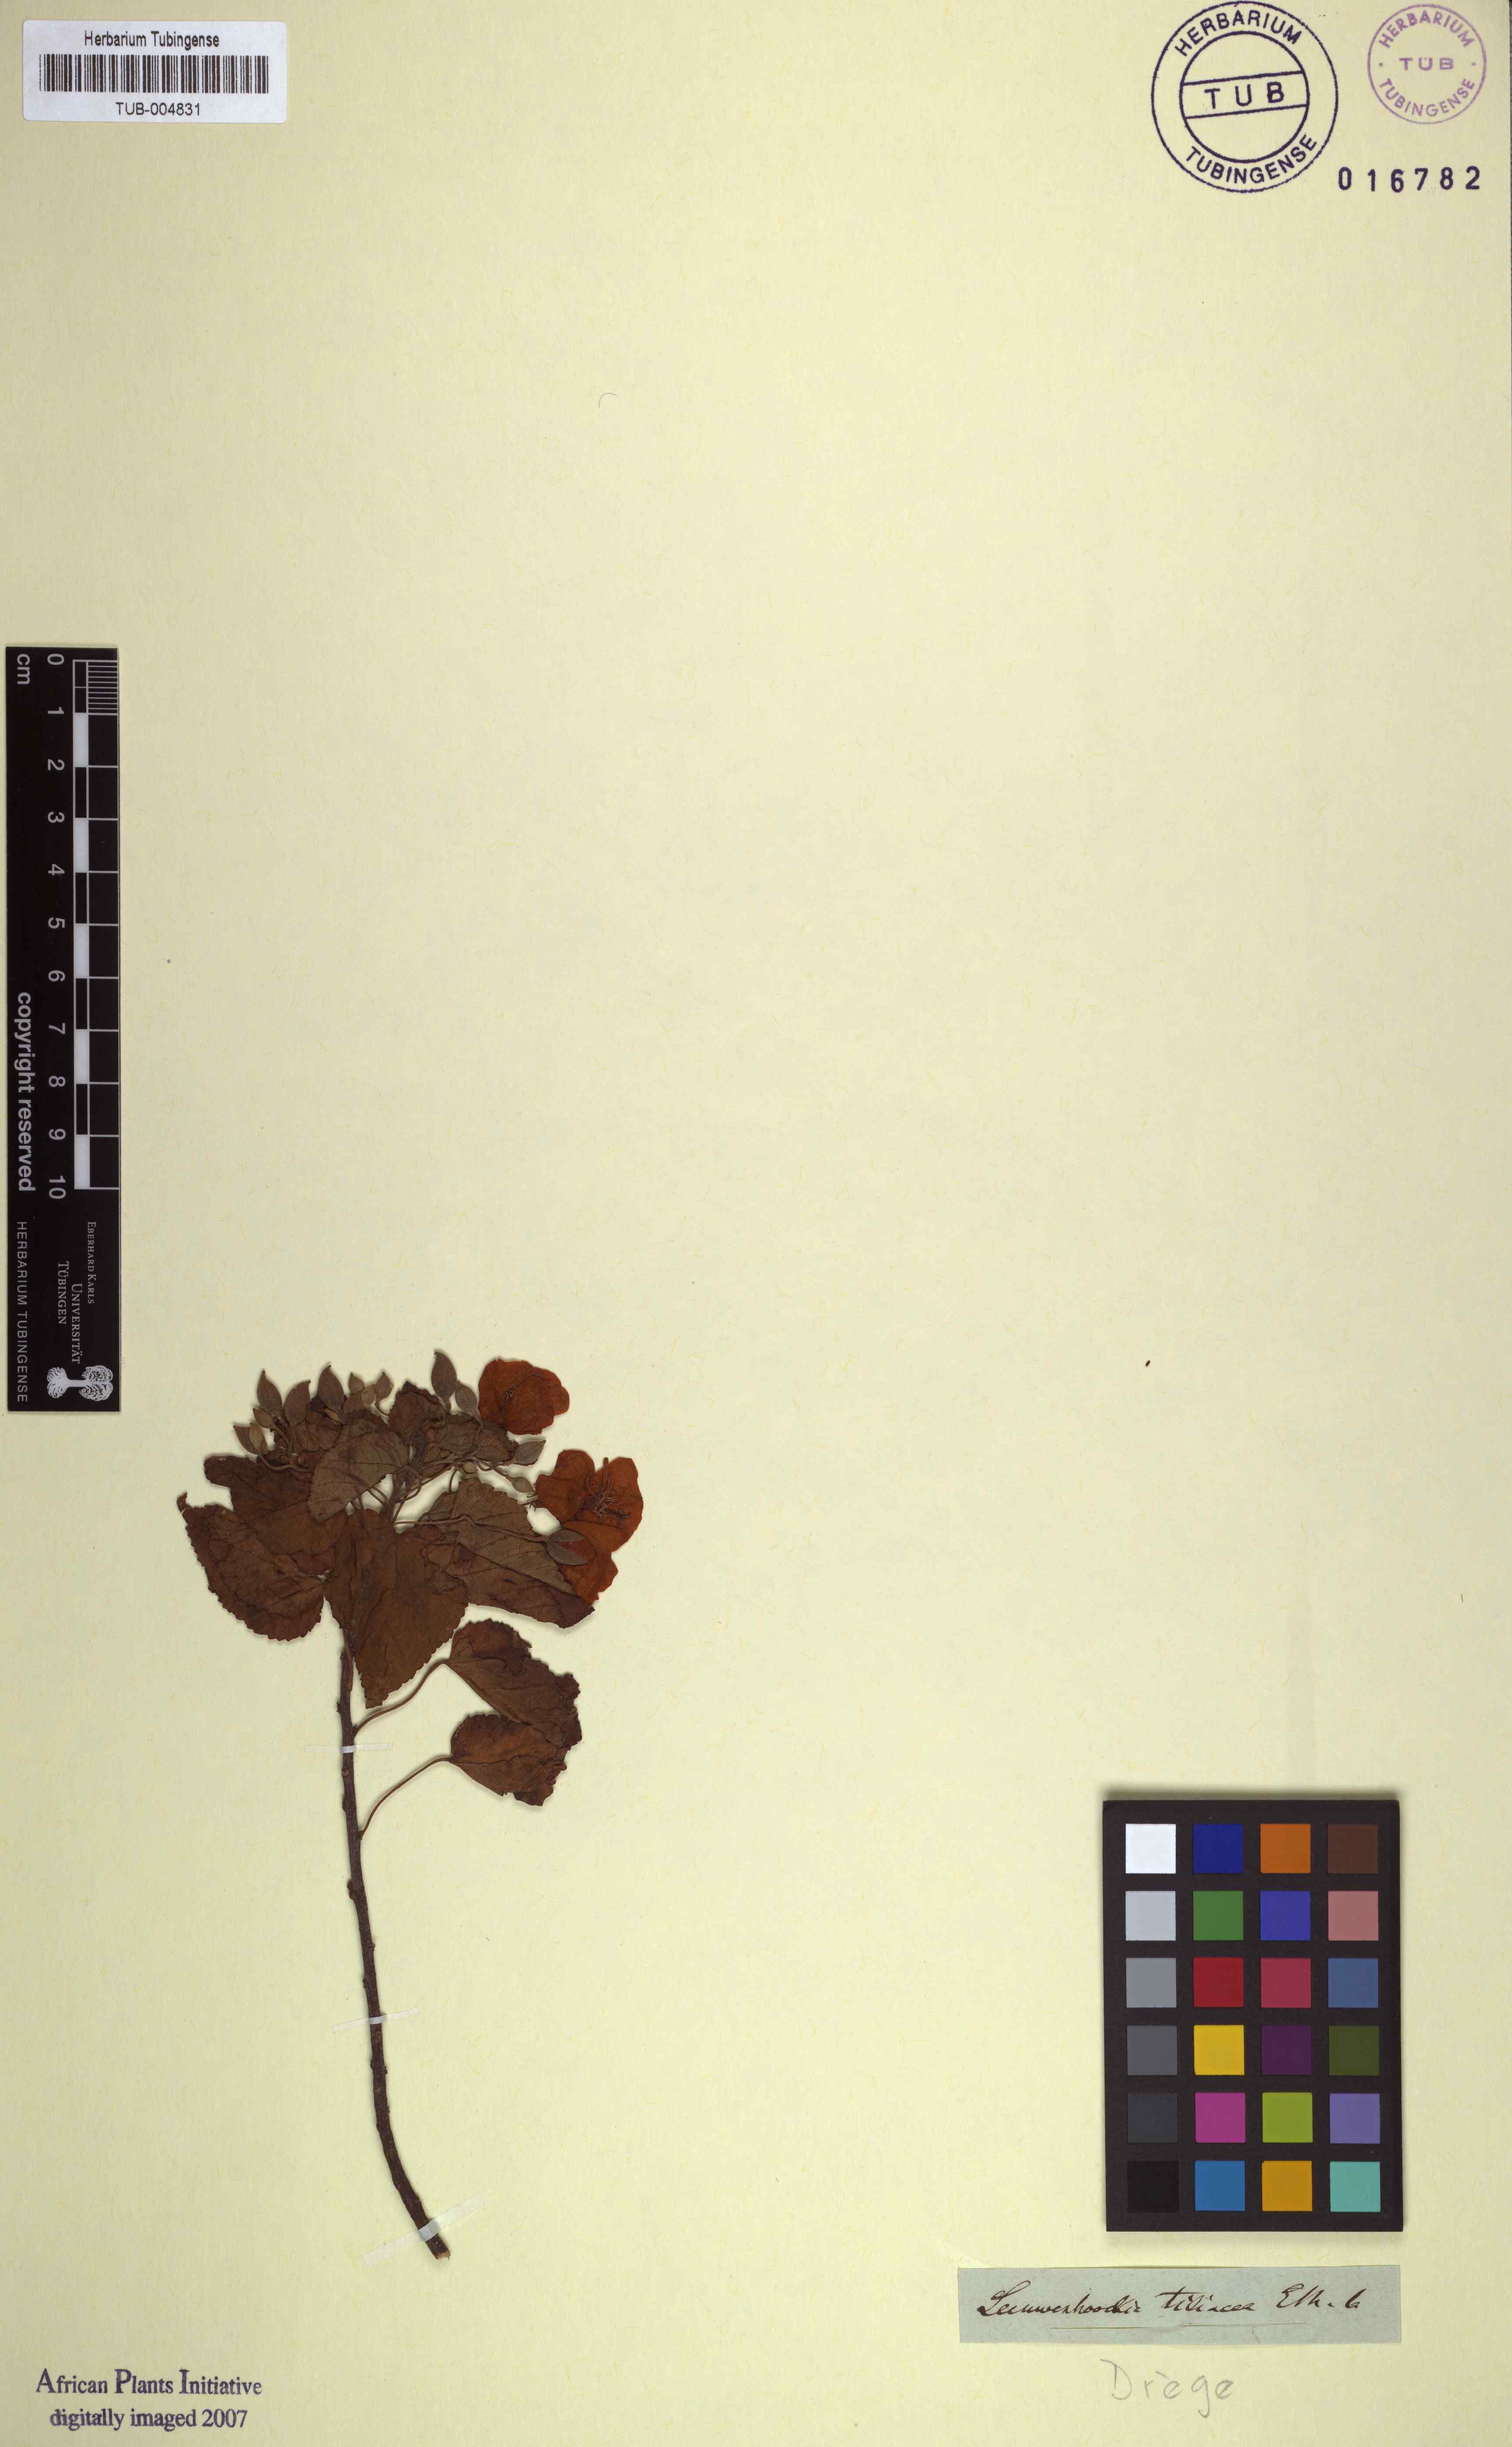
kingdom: Plantae
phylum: Tracheophyta
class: Magnoliopsida
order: Malvales
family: Malvaceae
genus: Dombeya
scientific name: Dombeya tiliacea
